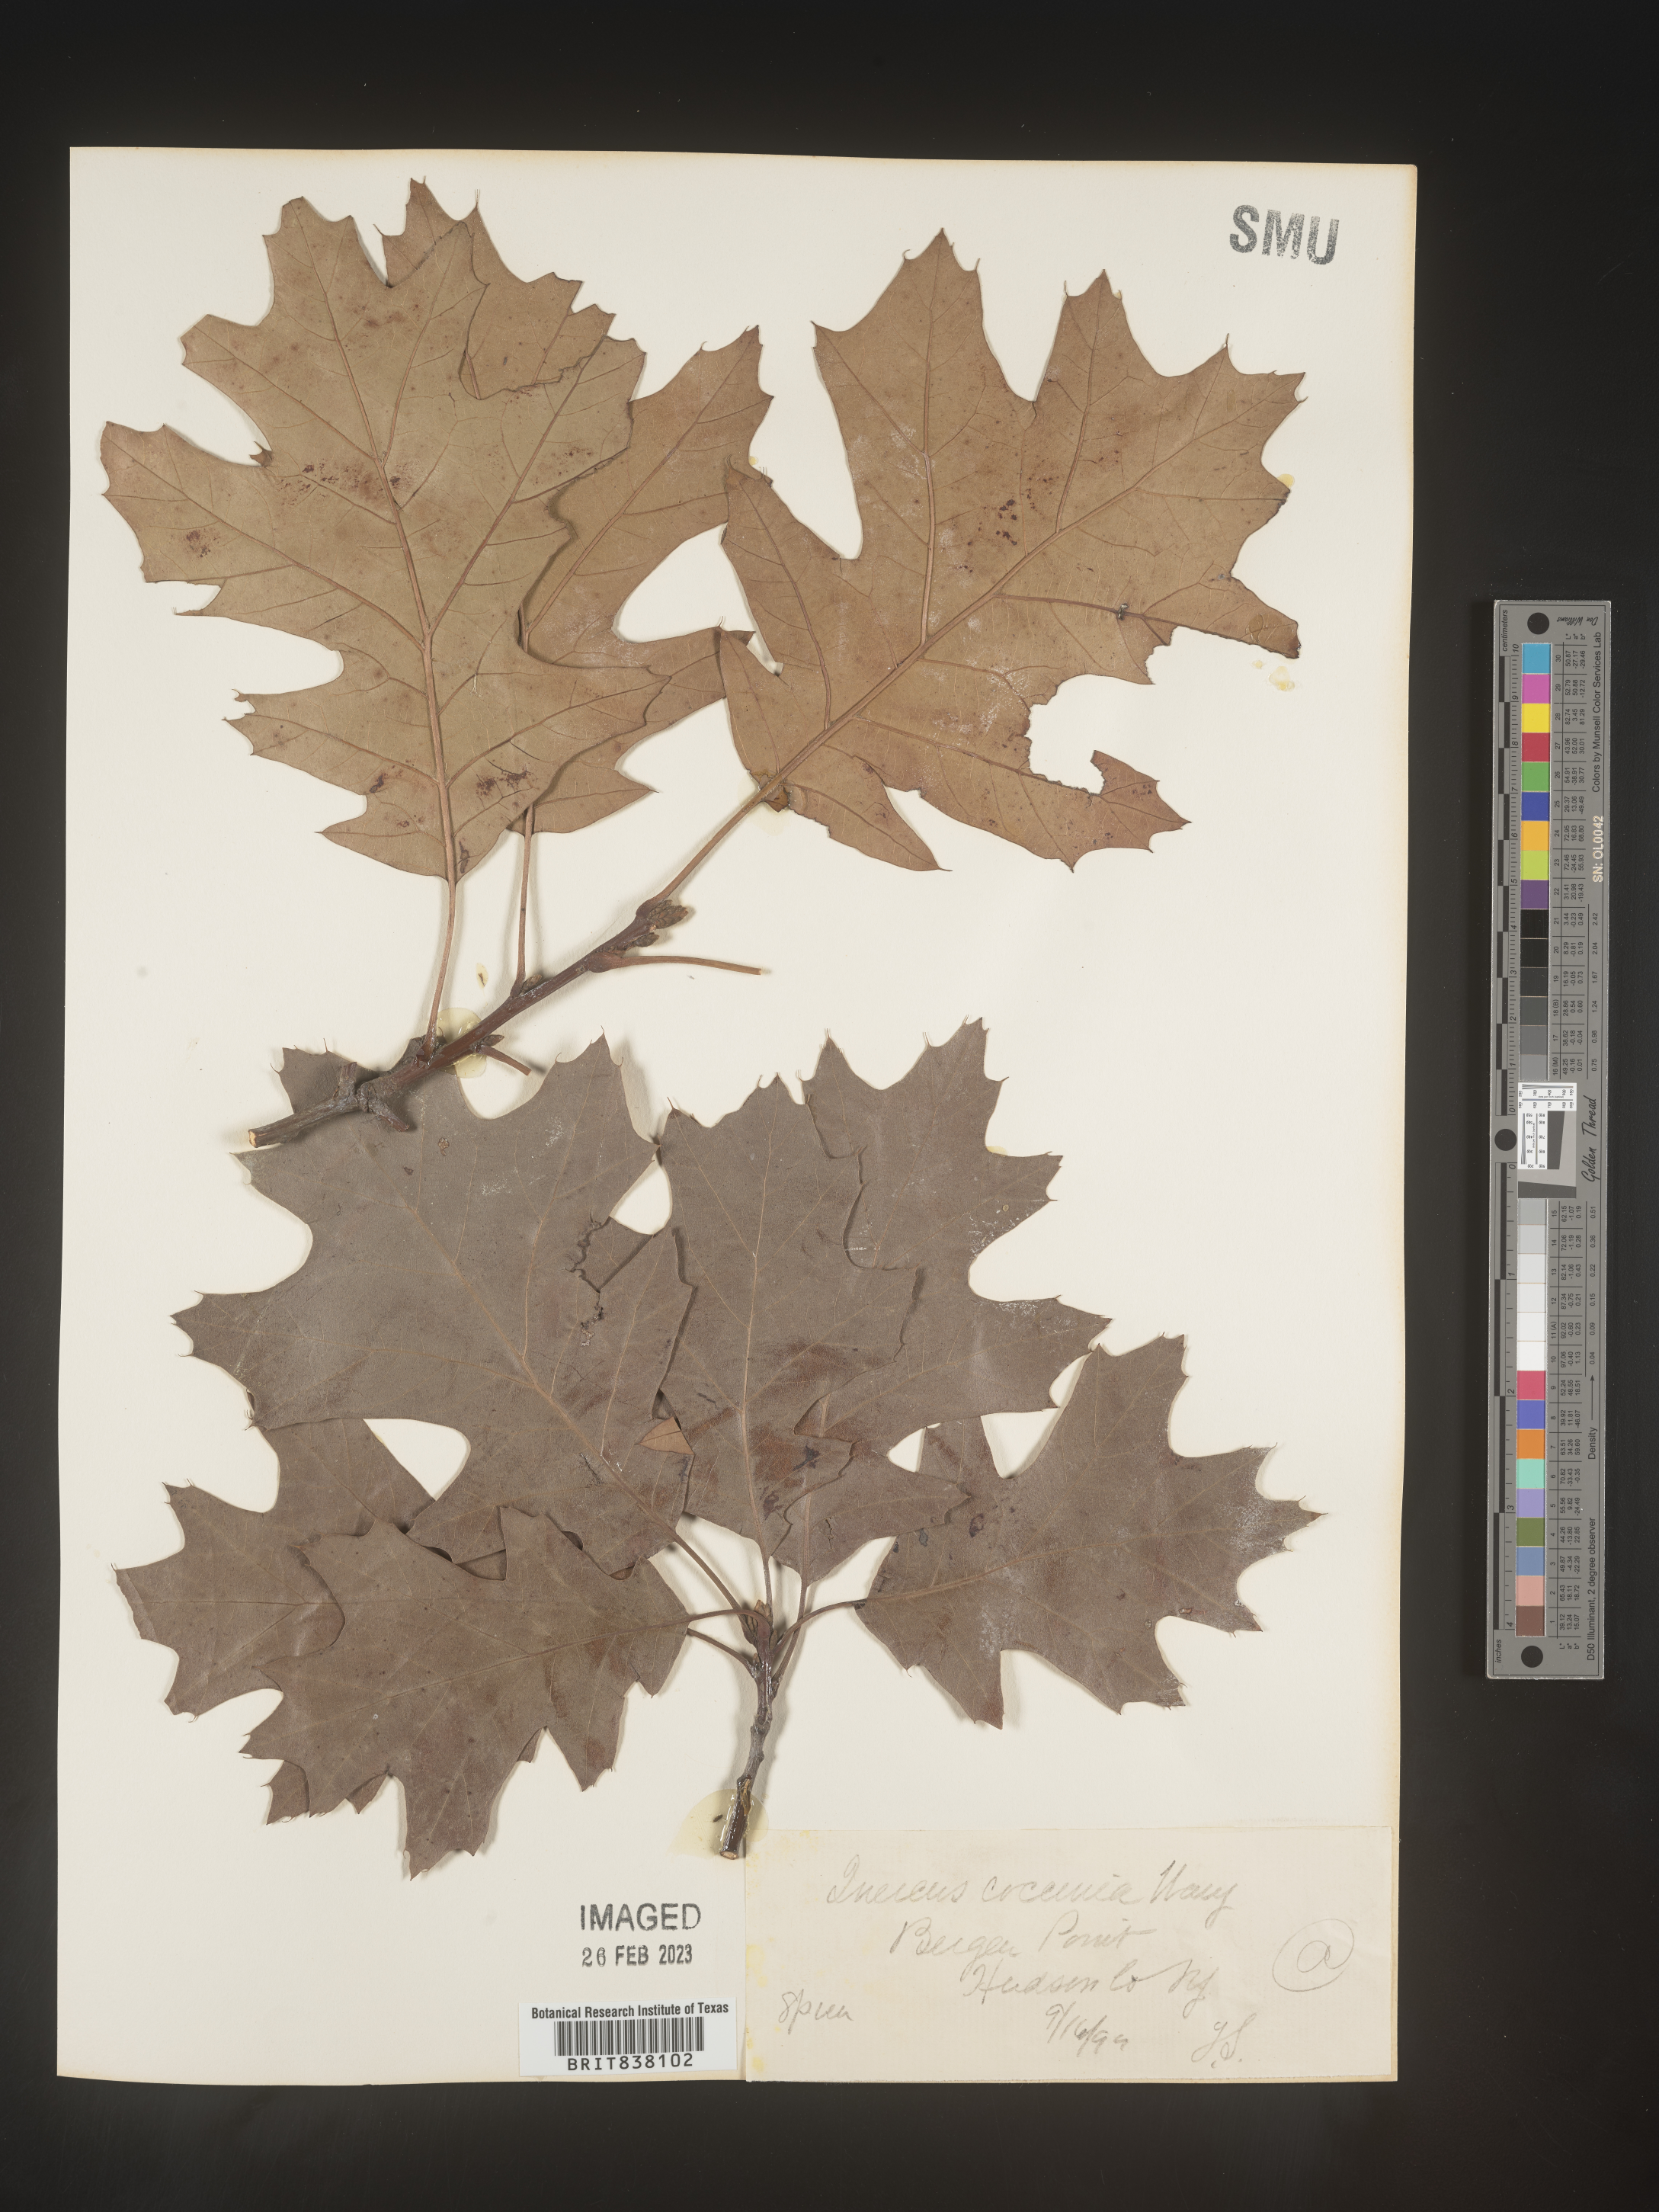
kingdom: Plantae
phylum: Tracheophyta
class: Magnoliopsida
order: Fagales
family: Fagaceae
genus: Quercus
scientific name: Quercus coccinea
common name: Scarlet oak
